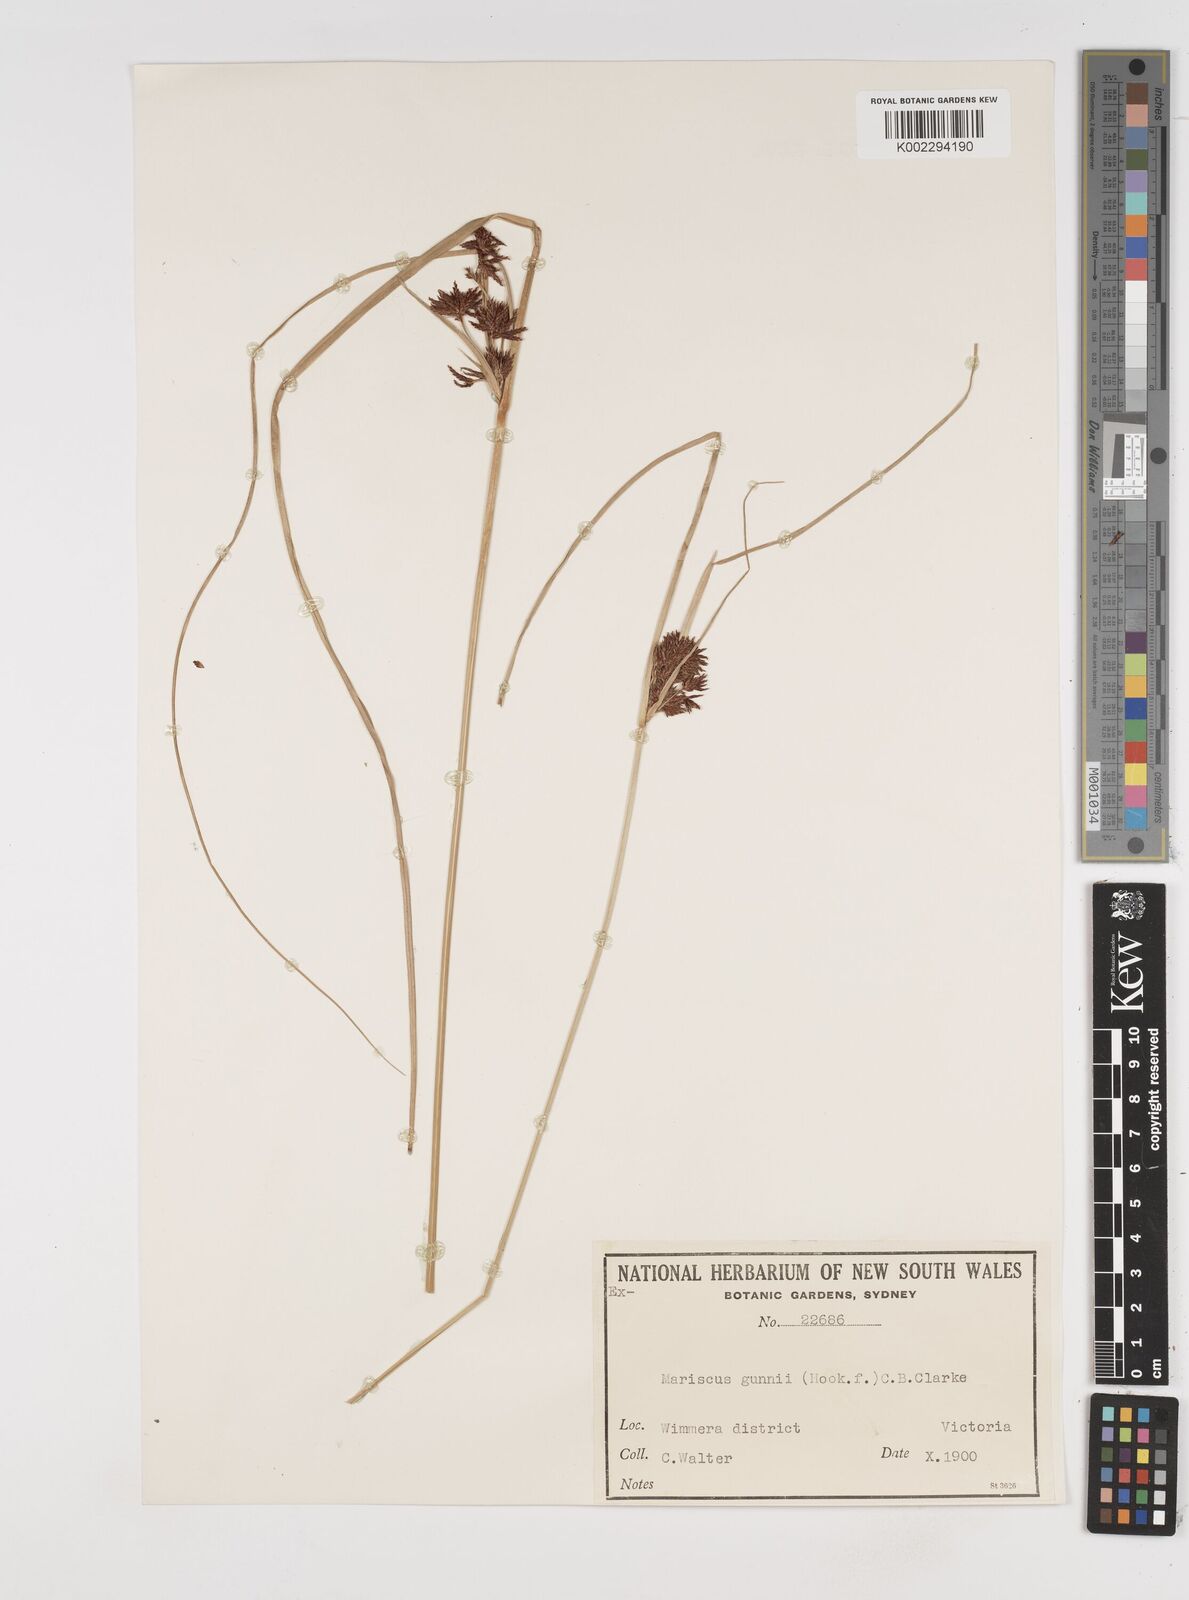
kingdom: Plantae
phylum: Tracheophyta
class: Liliopsida
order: Poales
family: Cyperaceae
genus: Cyperus
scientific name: Cyperus gunnii
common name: Flecked flat-sedge
